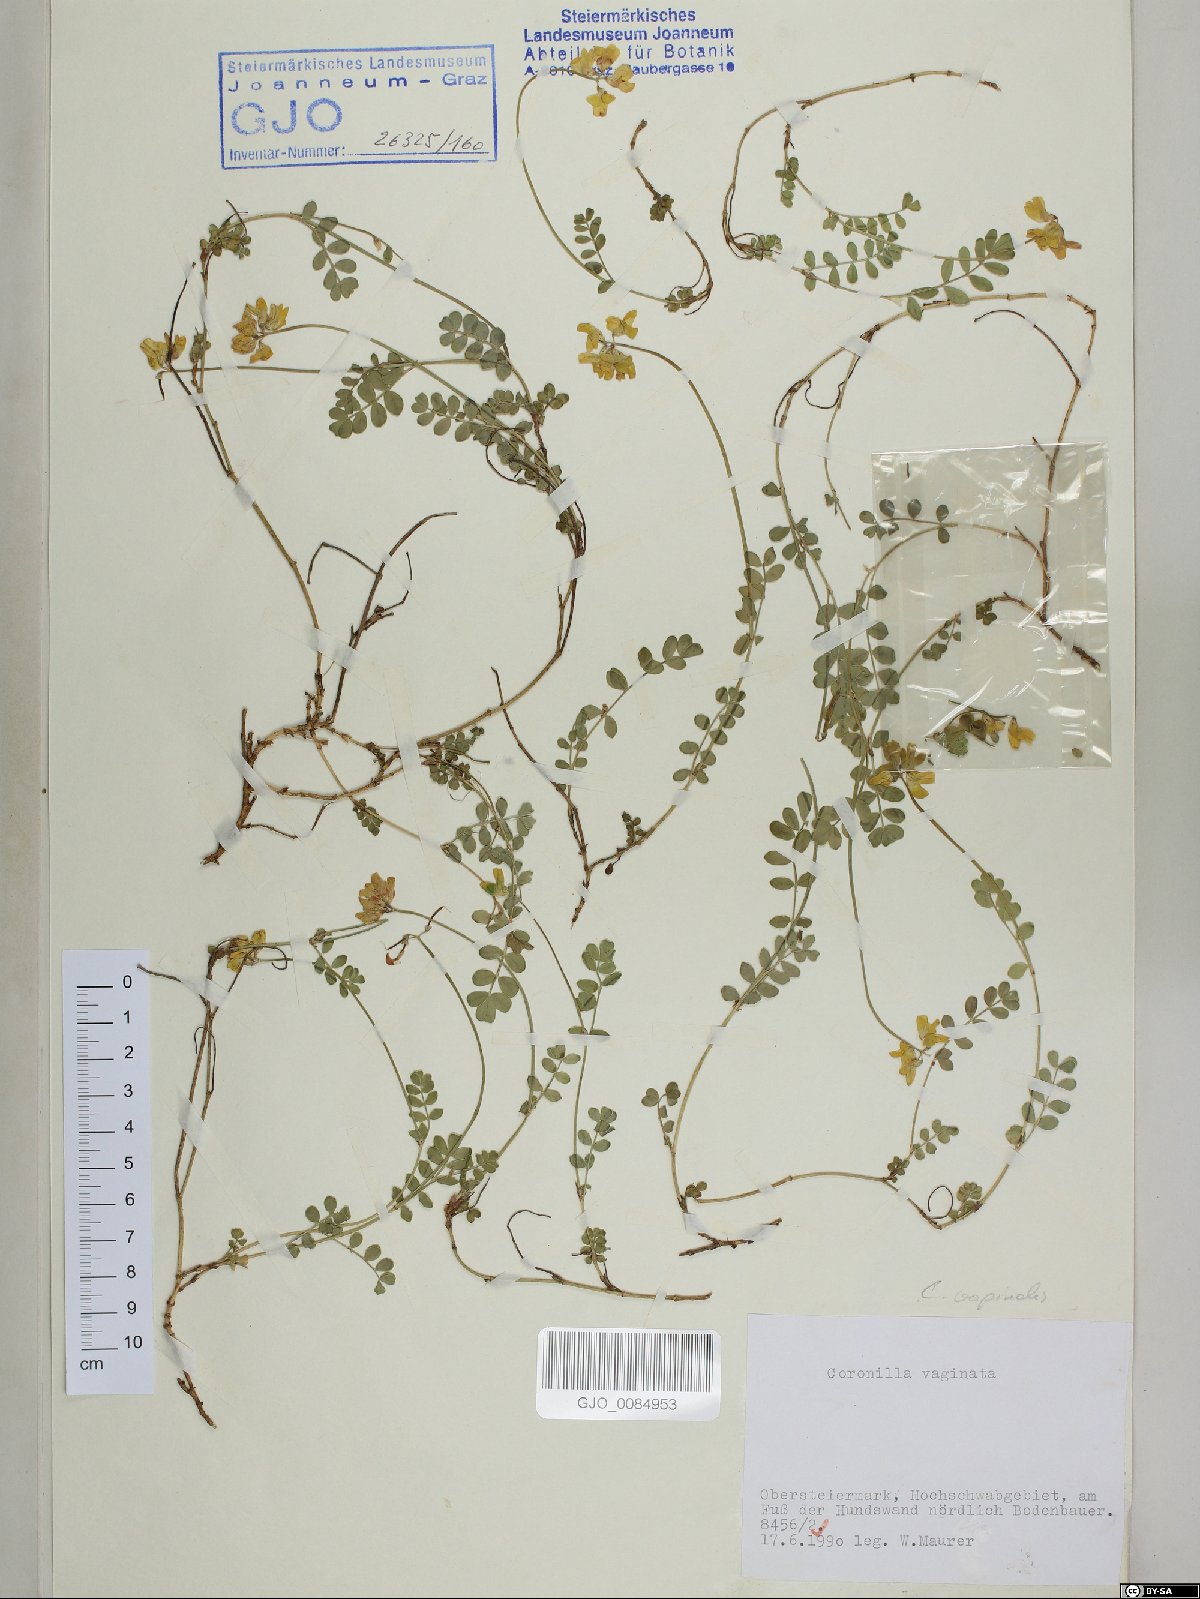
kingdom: Plantae
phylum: Tracheophyta
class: Magnoliopsida
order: Fabales
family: Fabaceae
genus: Coronilla
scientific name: Coronilla vaginalis
